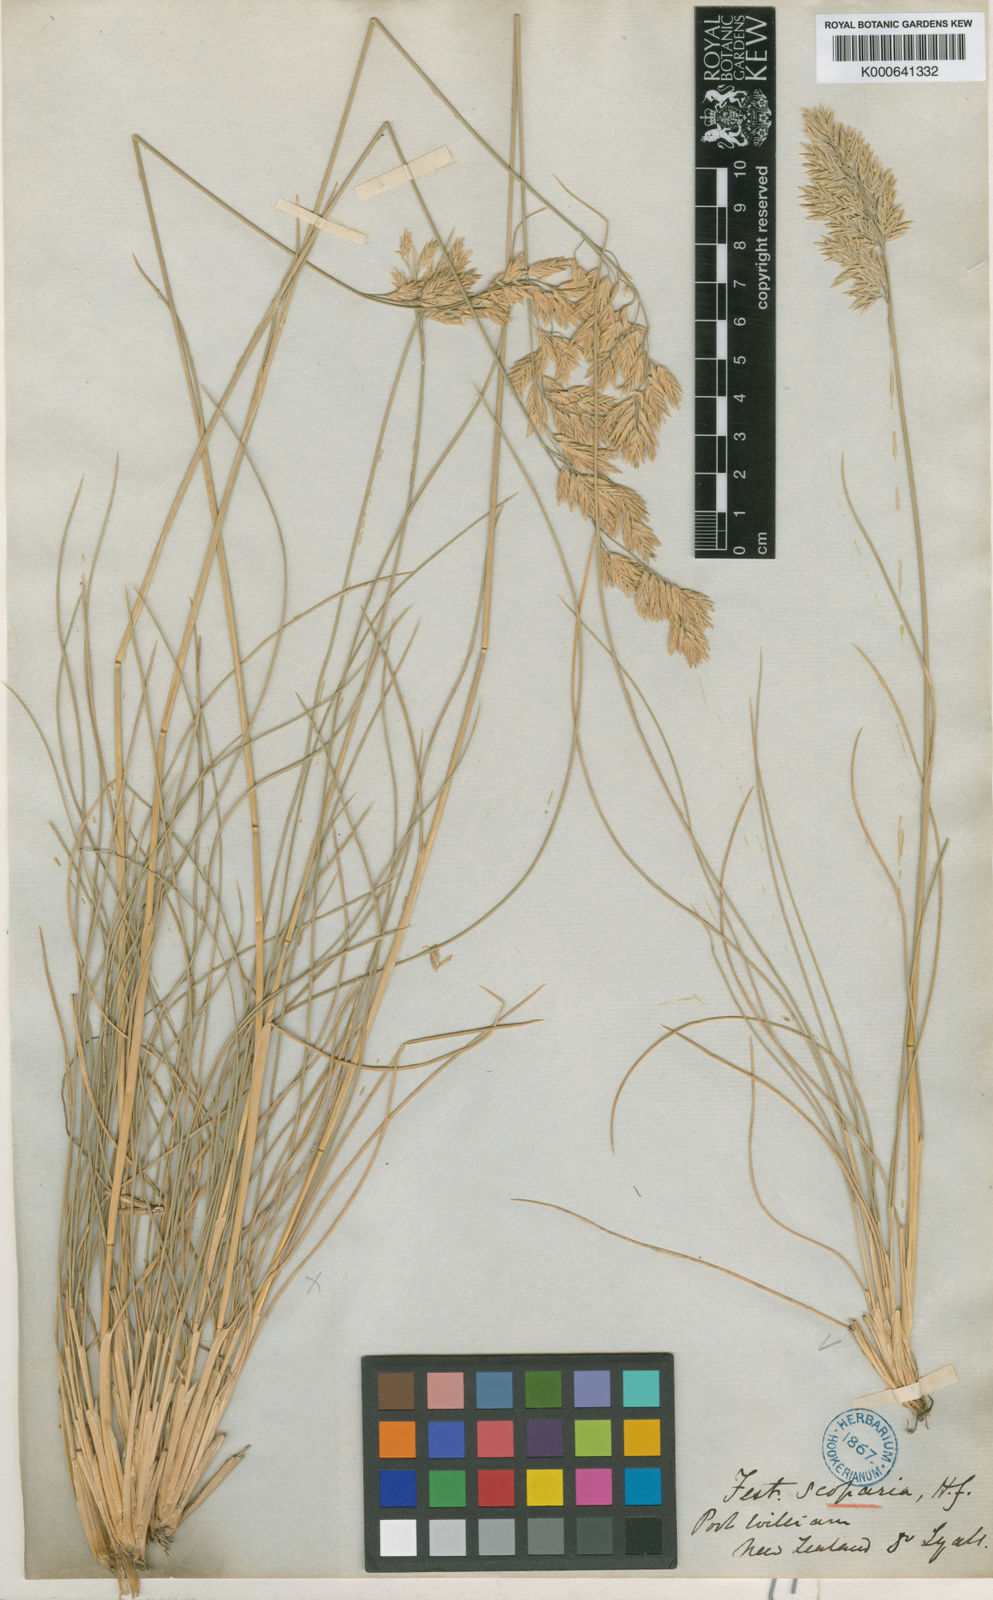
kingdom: Plantae
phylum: Tracheophyta
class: Liliopsida
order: Poales
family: Poaceae
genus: Poa
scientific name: Poa astonii
